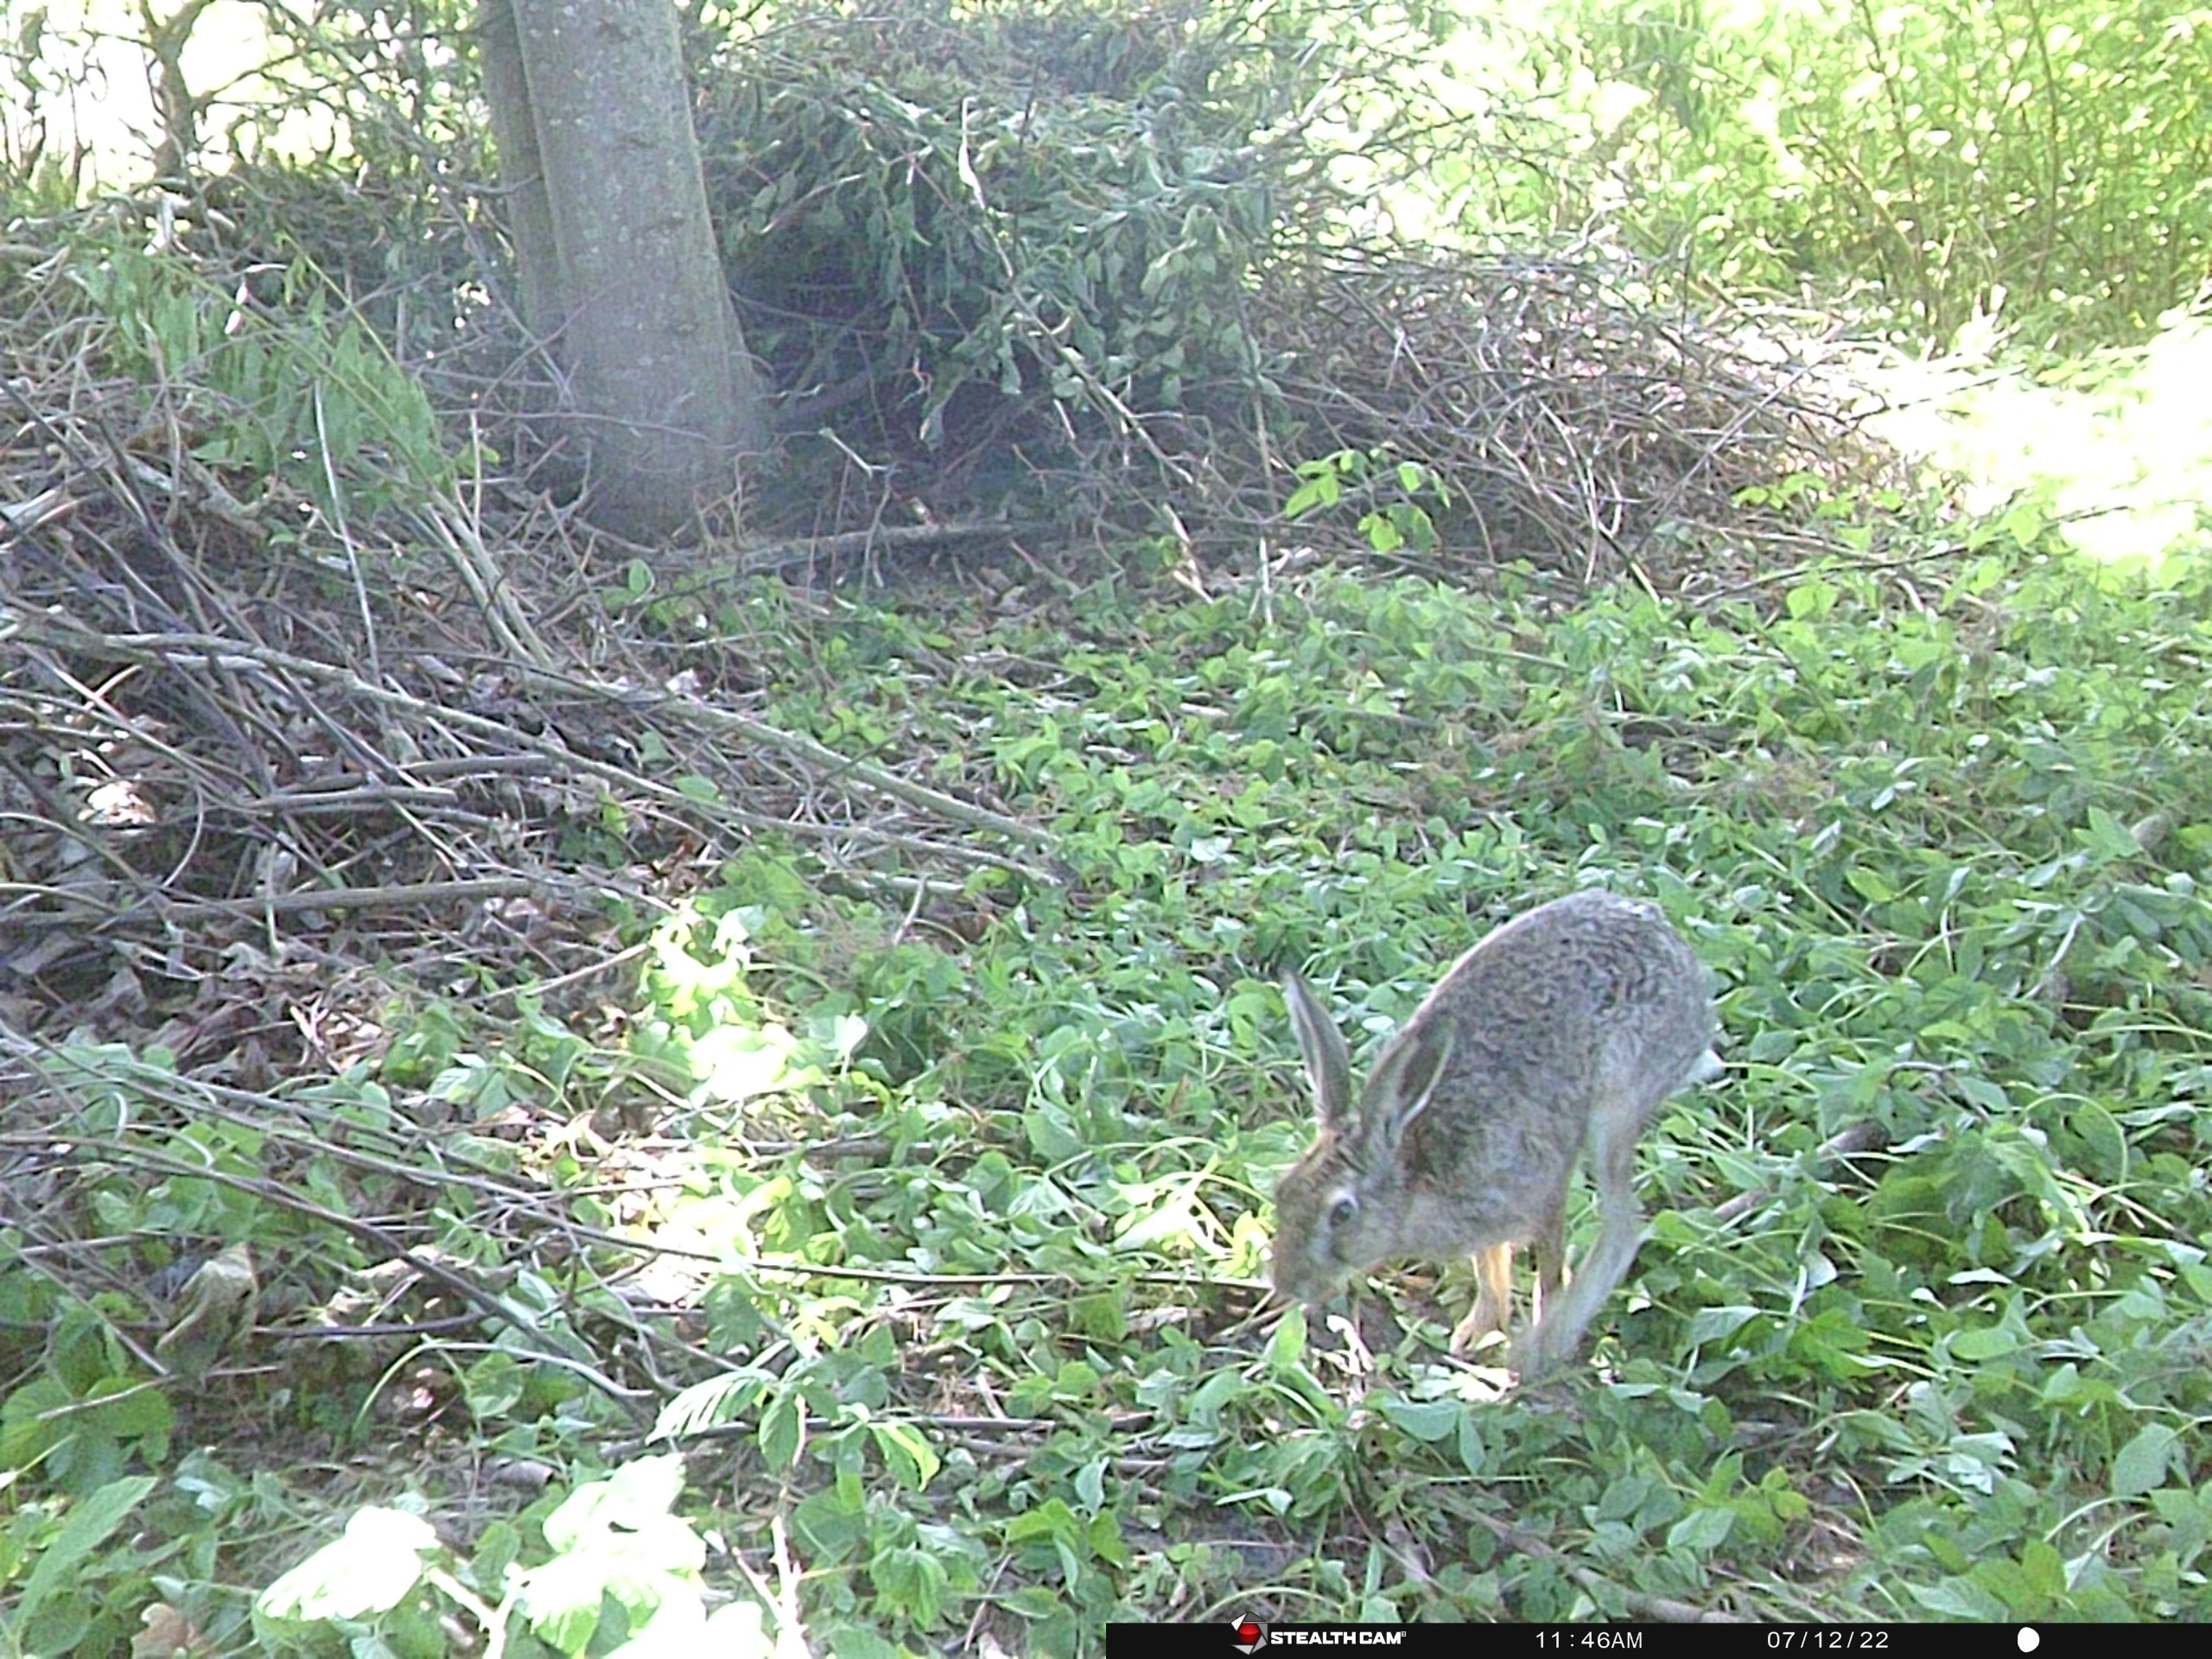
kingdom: Animalia
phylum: Chordata
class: Mammalia
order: Lagomorpha
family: Leporidae
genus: Lepus
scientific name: Lepus europaeus
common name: Hare
